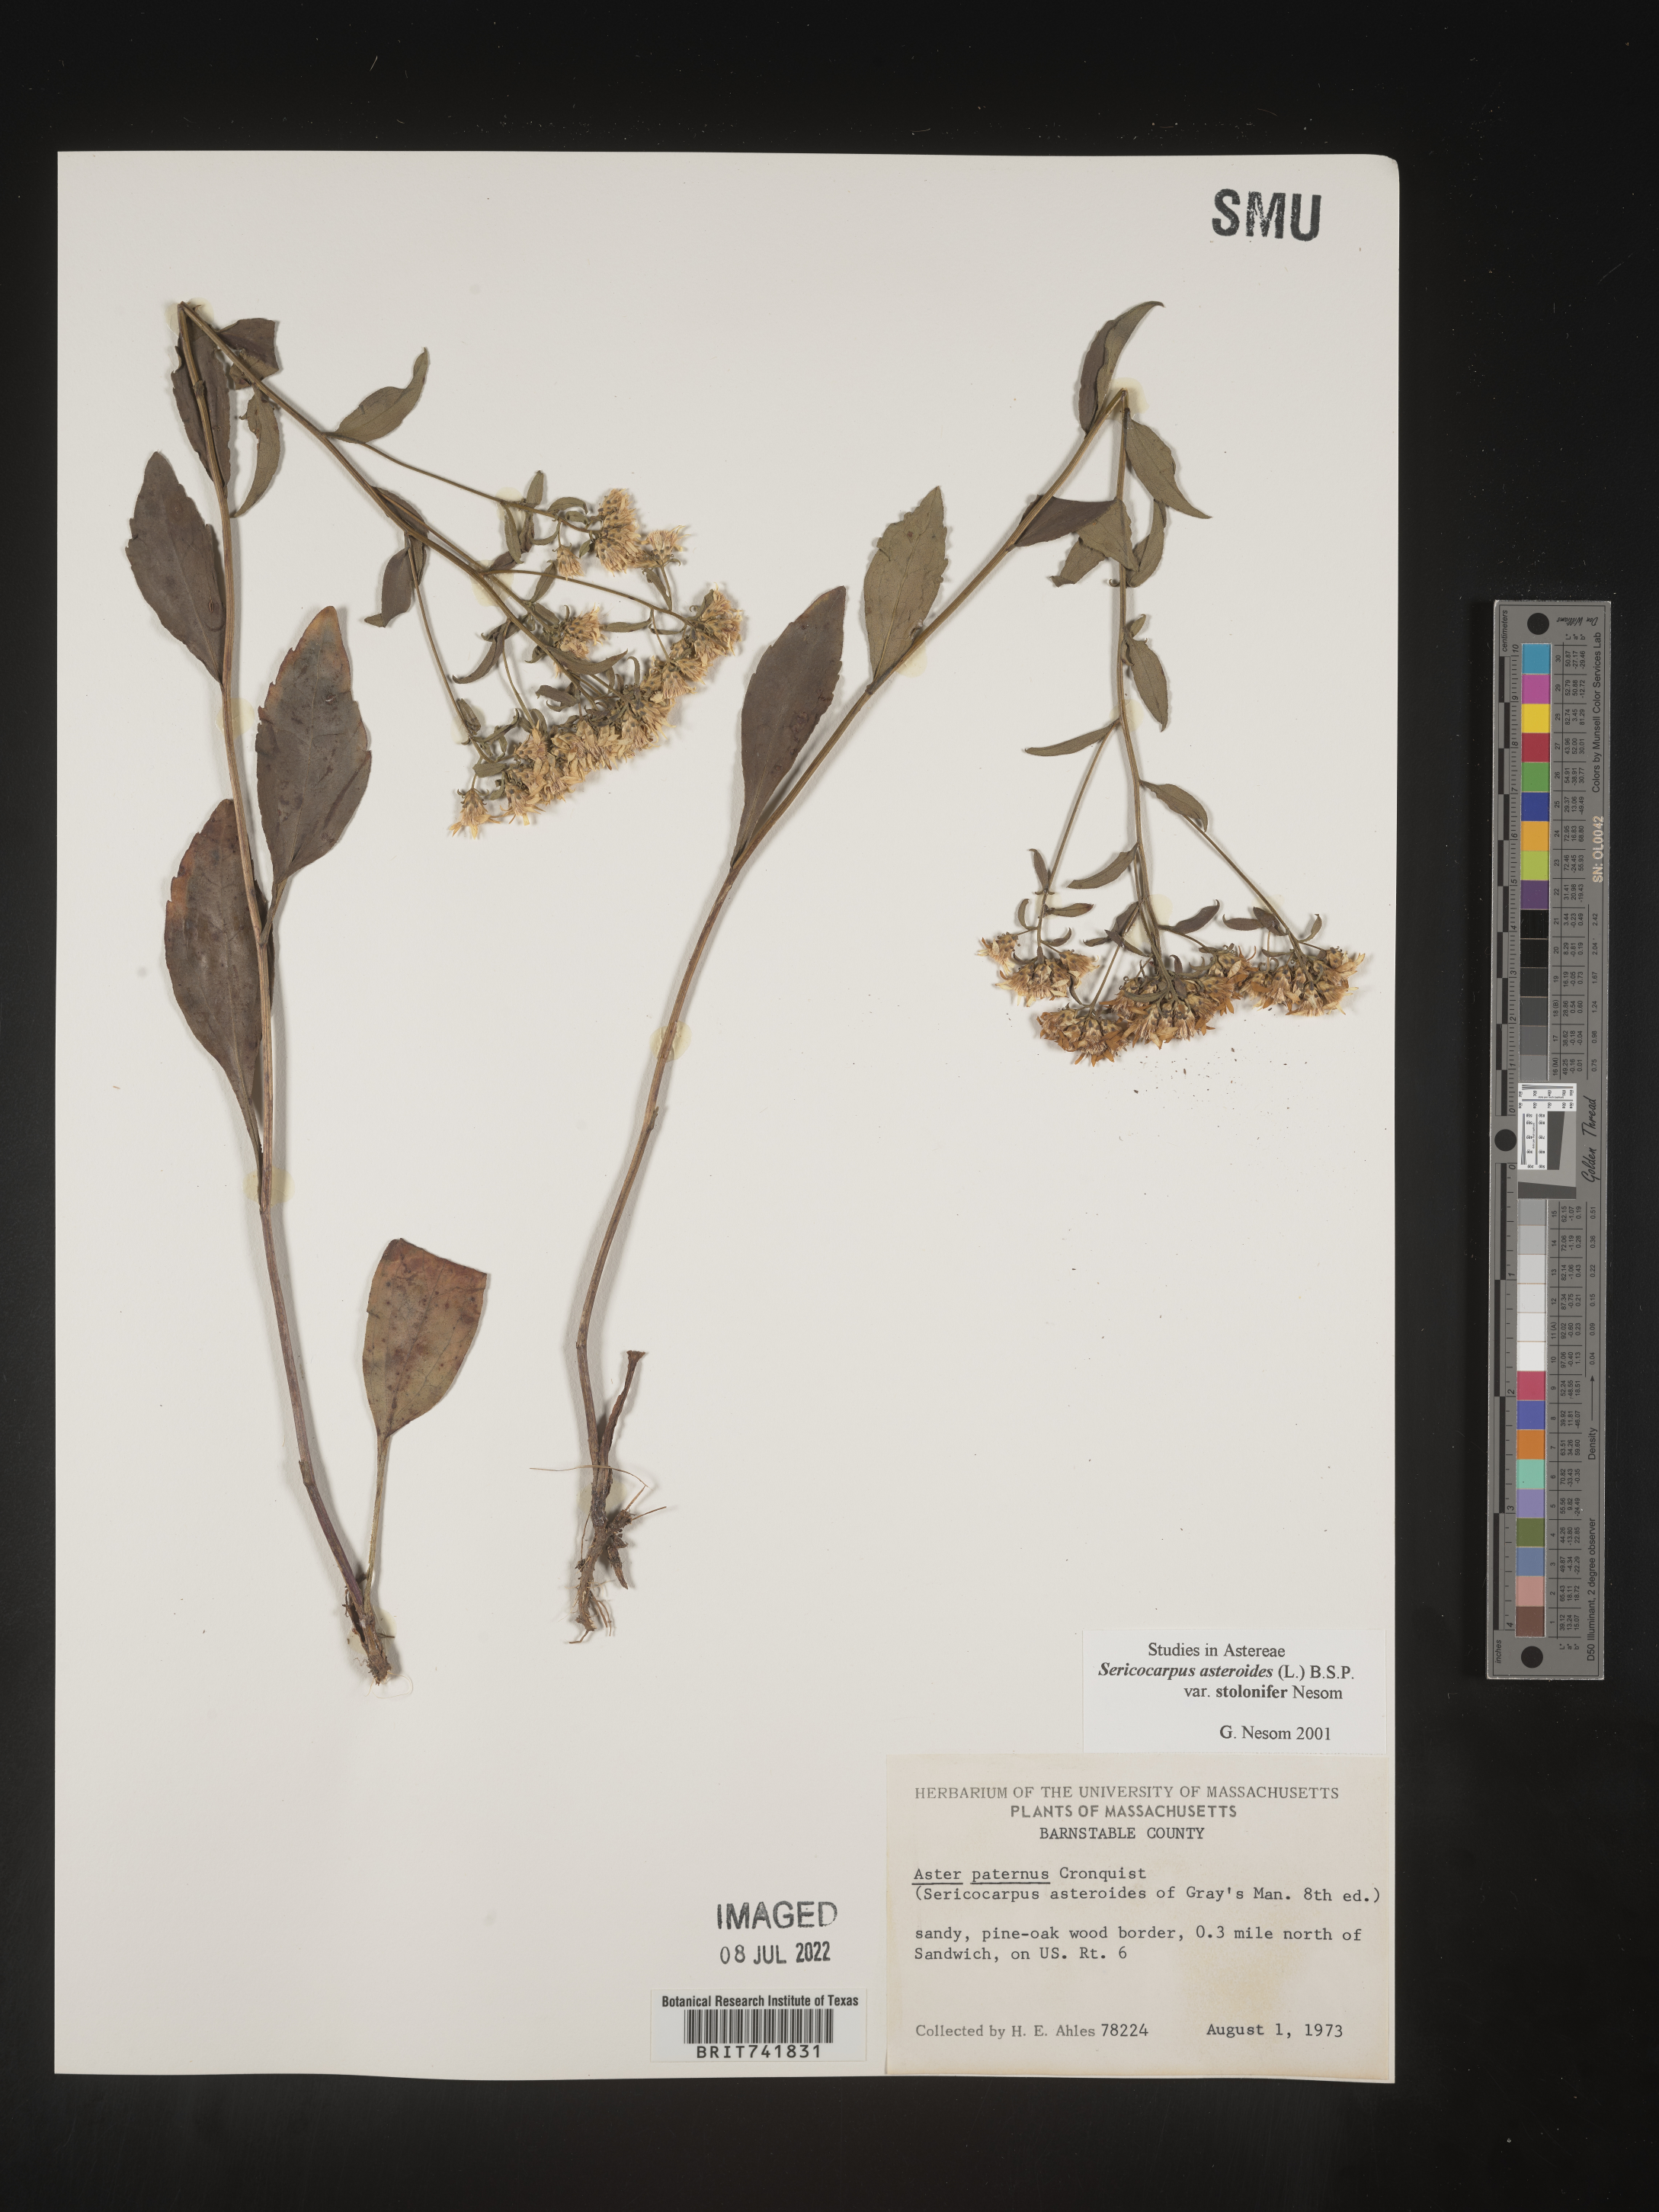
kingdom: Plantae
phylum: Tracheophyta
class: Magnoliopsida
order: Asterales
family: Asteraceae
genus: Sericocarpus
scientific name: Sericocarpus asteroides
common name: Toothed white-top aster
